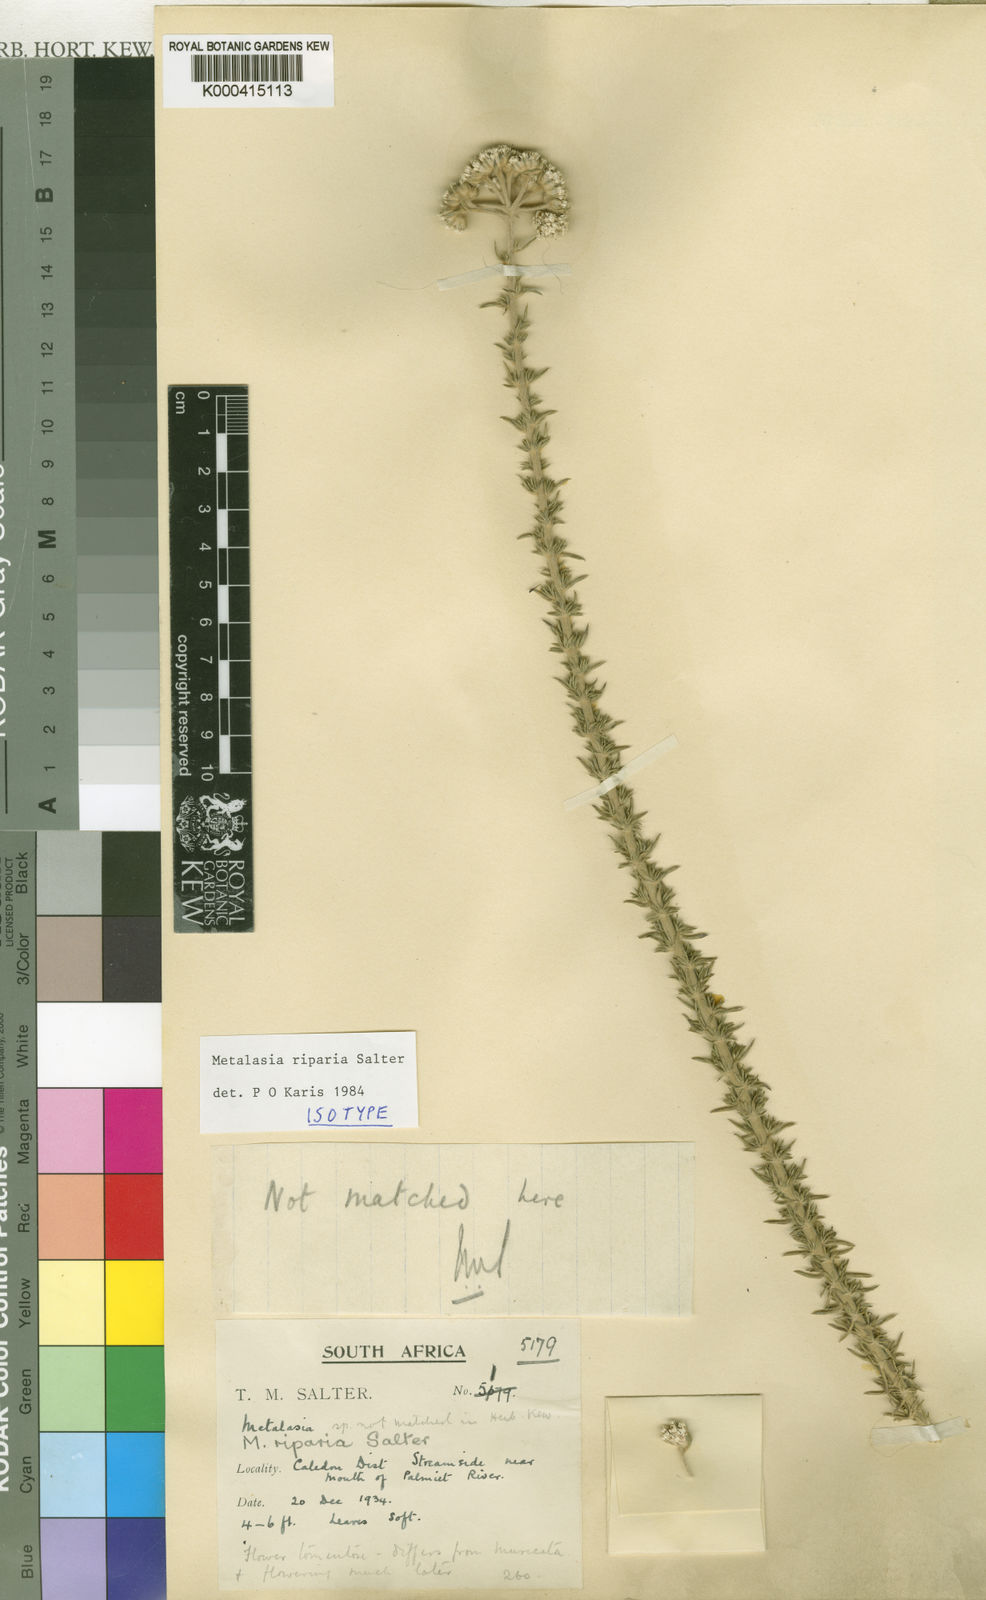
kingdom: Plantae
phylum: Tracheophyta
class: Magnoliopsida
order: Asterales
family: Asteraceae
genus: Metalasia
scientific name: Metalasia riparia
